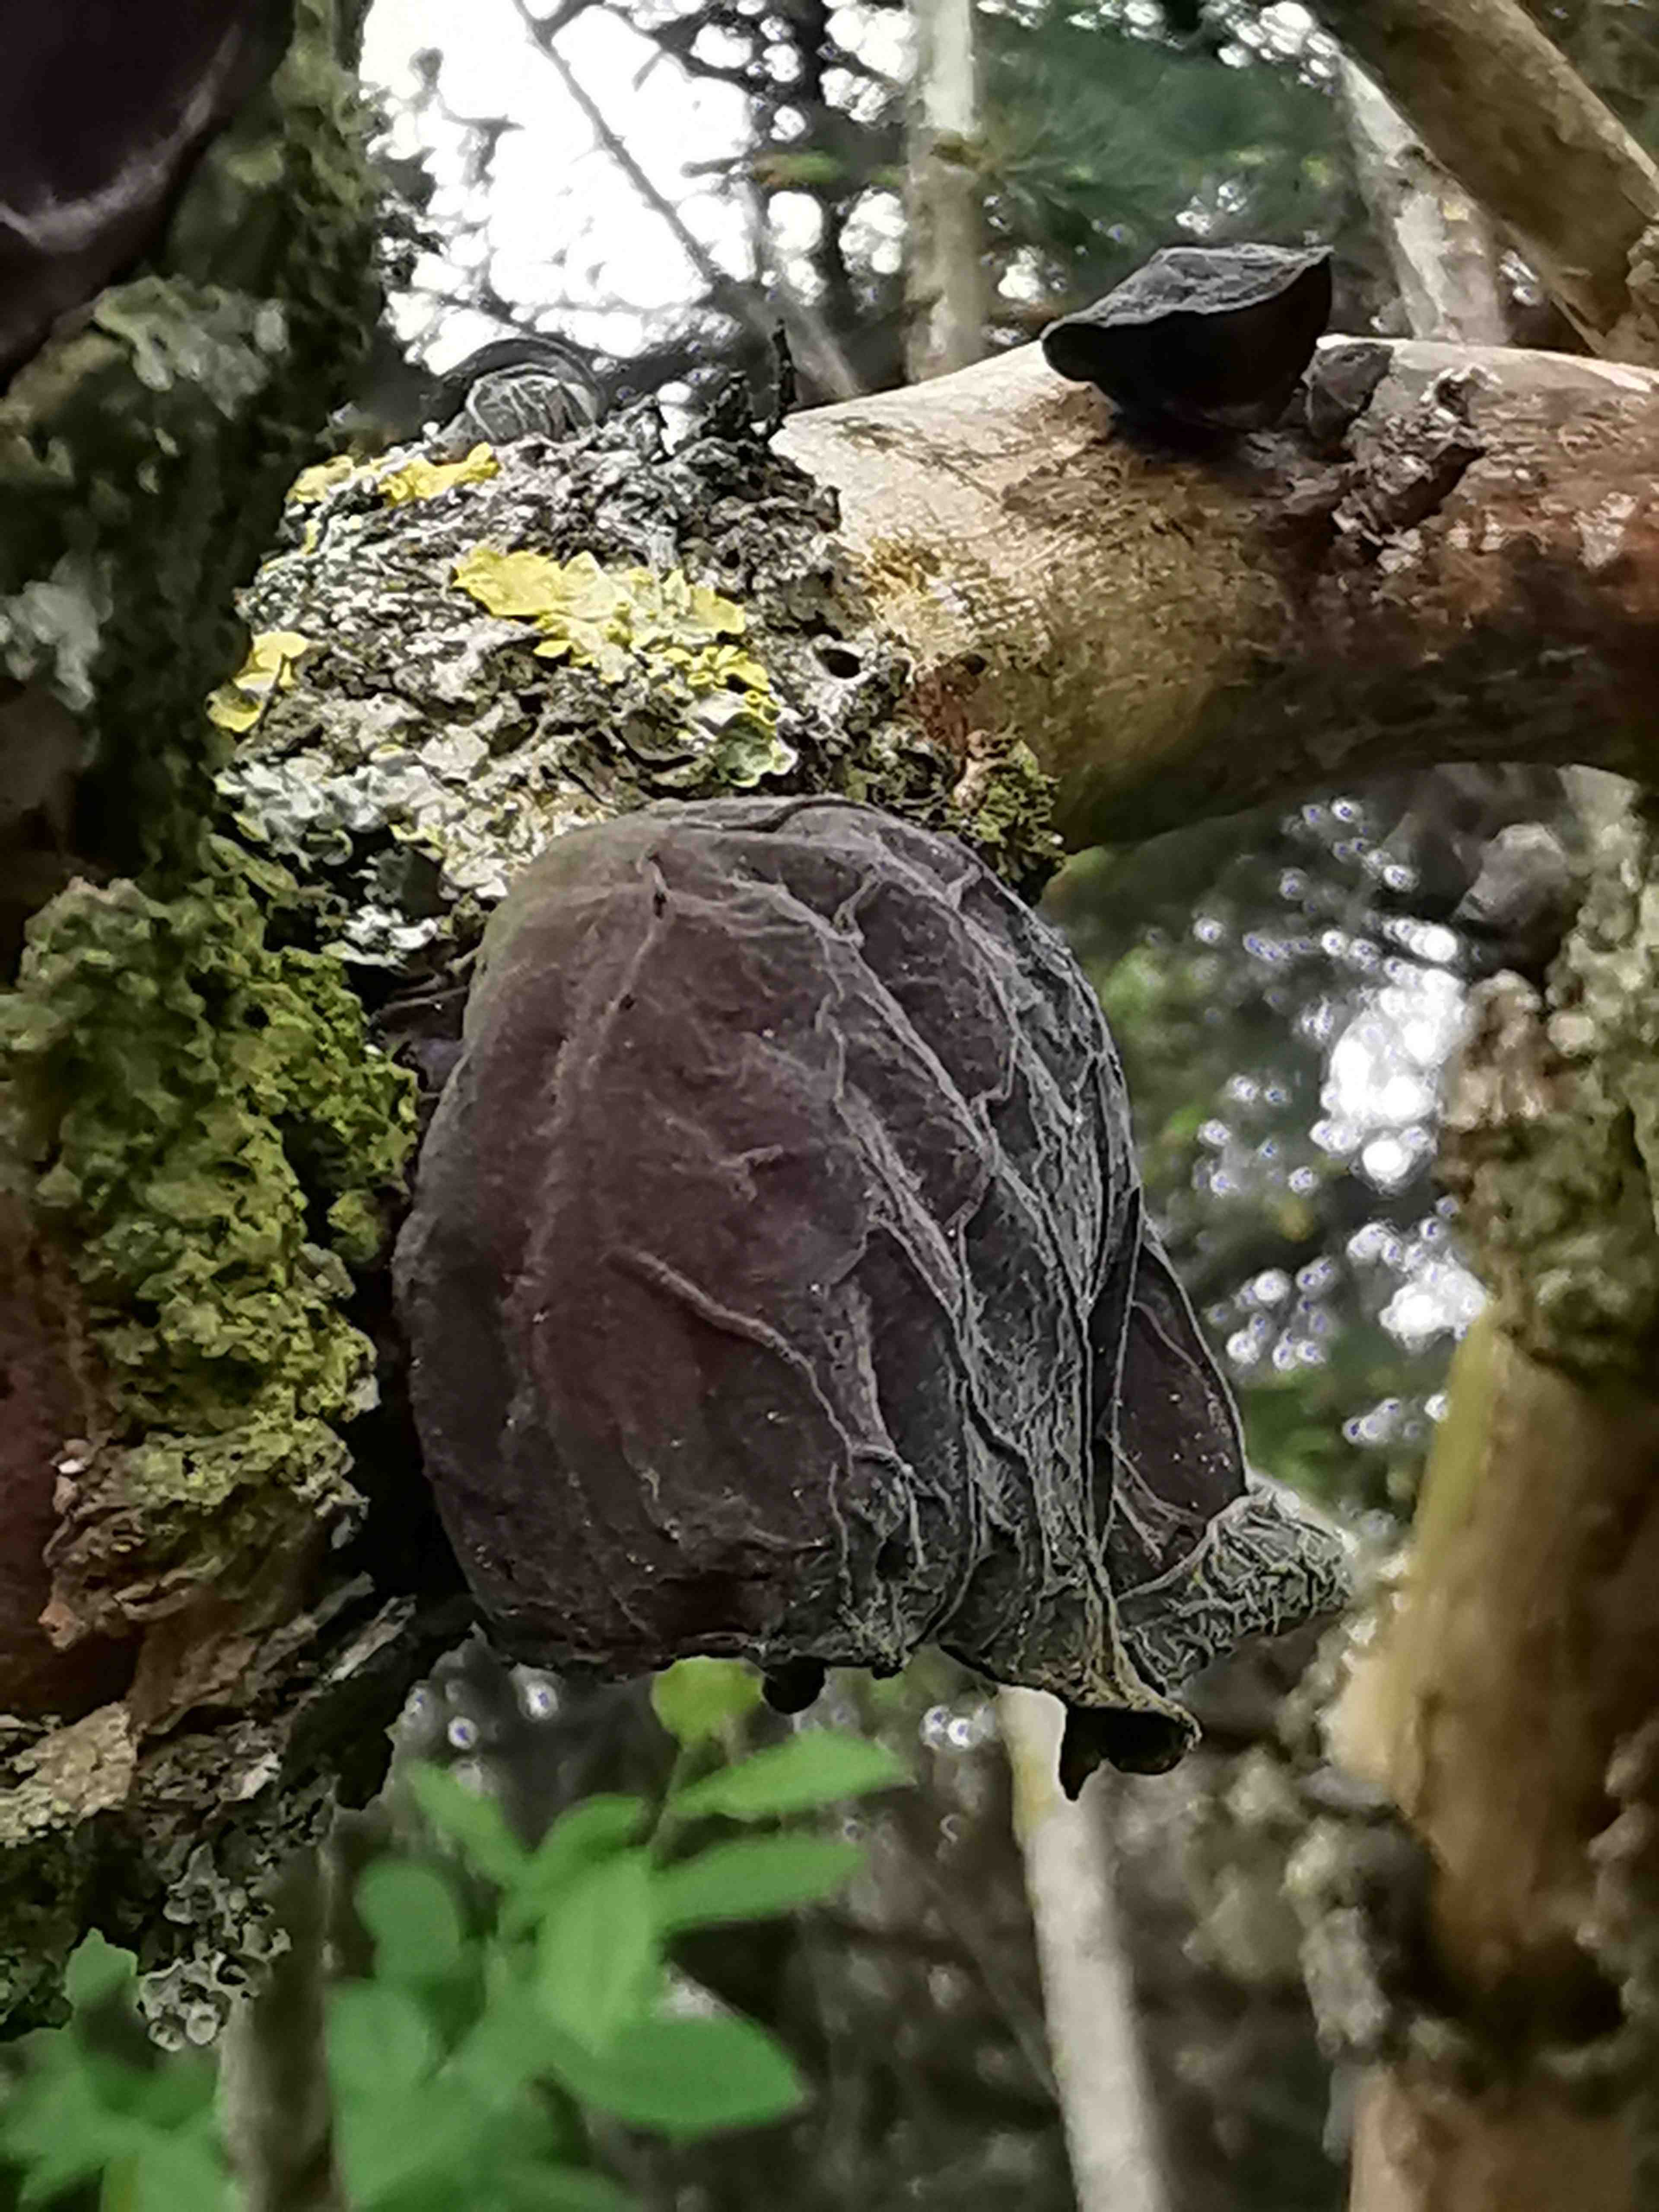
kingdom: Fungi
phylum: Basidiomycota
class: Agaricomycetes
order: Auriculariales
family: Auriculariaceae
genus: Auricularia
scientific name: Auricularia auricula-judae
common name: almindelig judasøre
